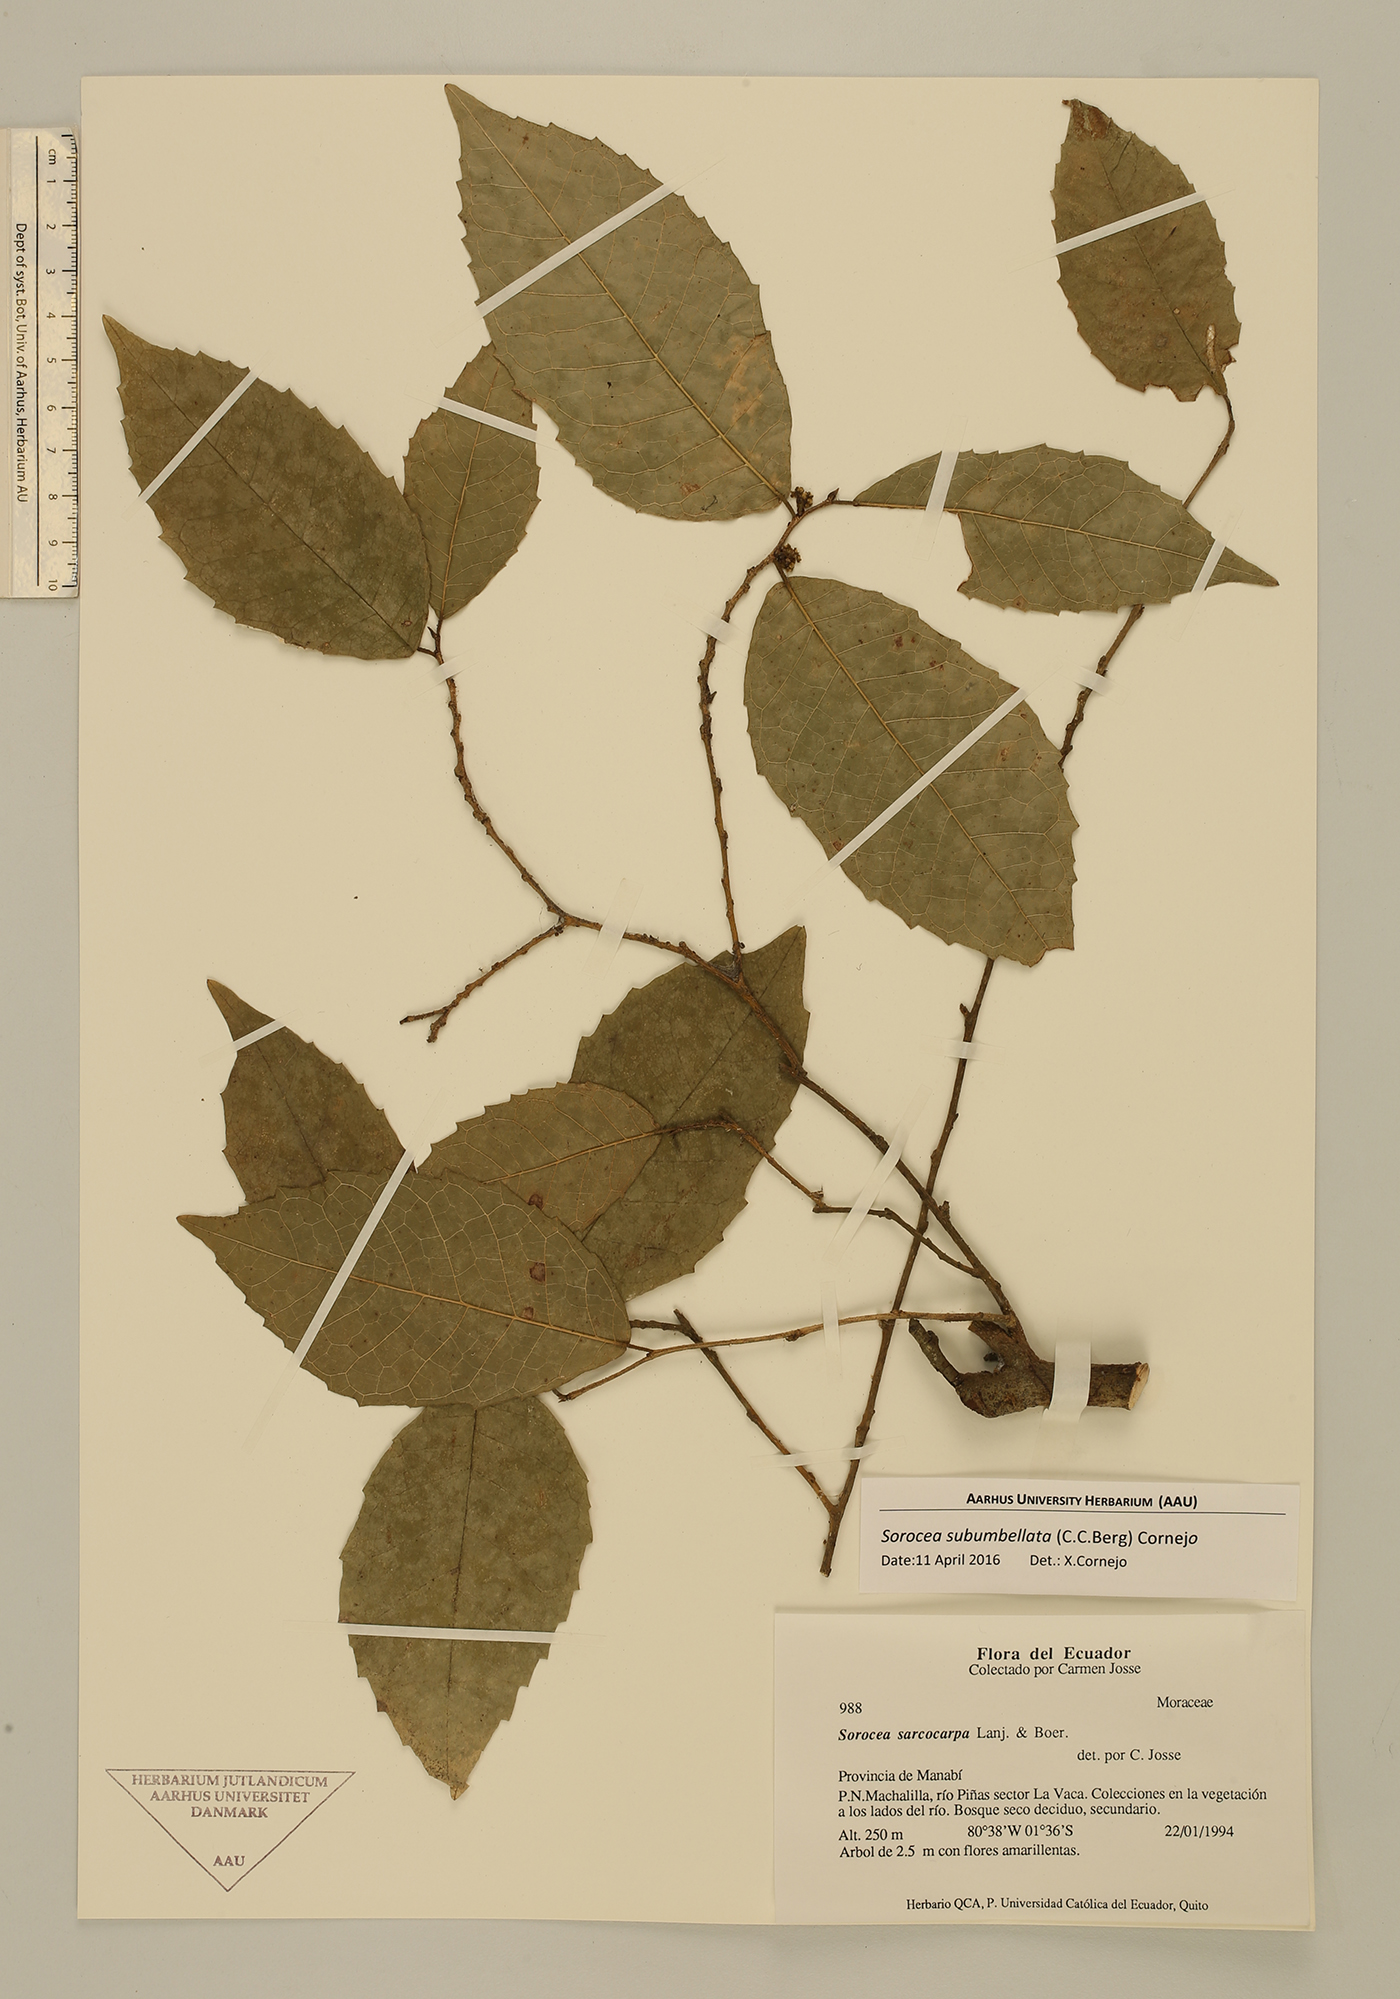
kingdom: Plantae
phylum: Tracheophyta
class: Magnoliopsida
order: Rosales
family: Moraceae
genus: Sorocea
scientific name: Sorocea subumbellata
